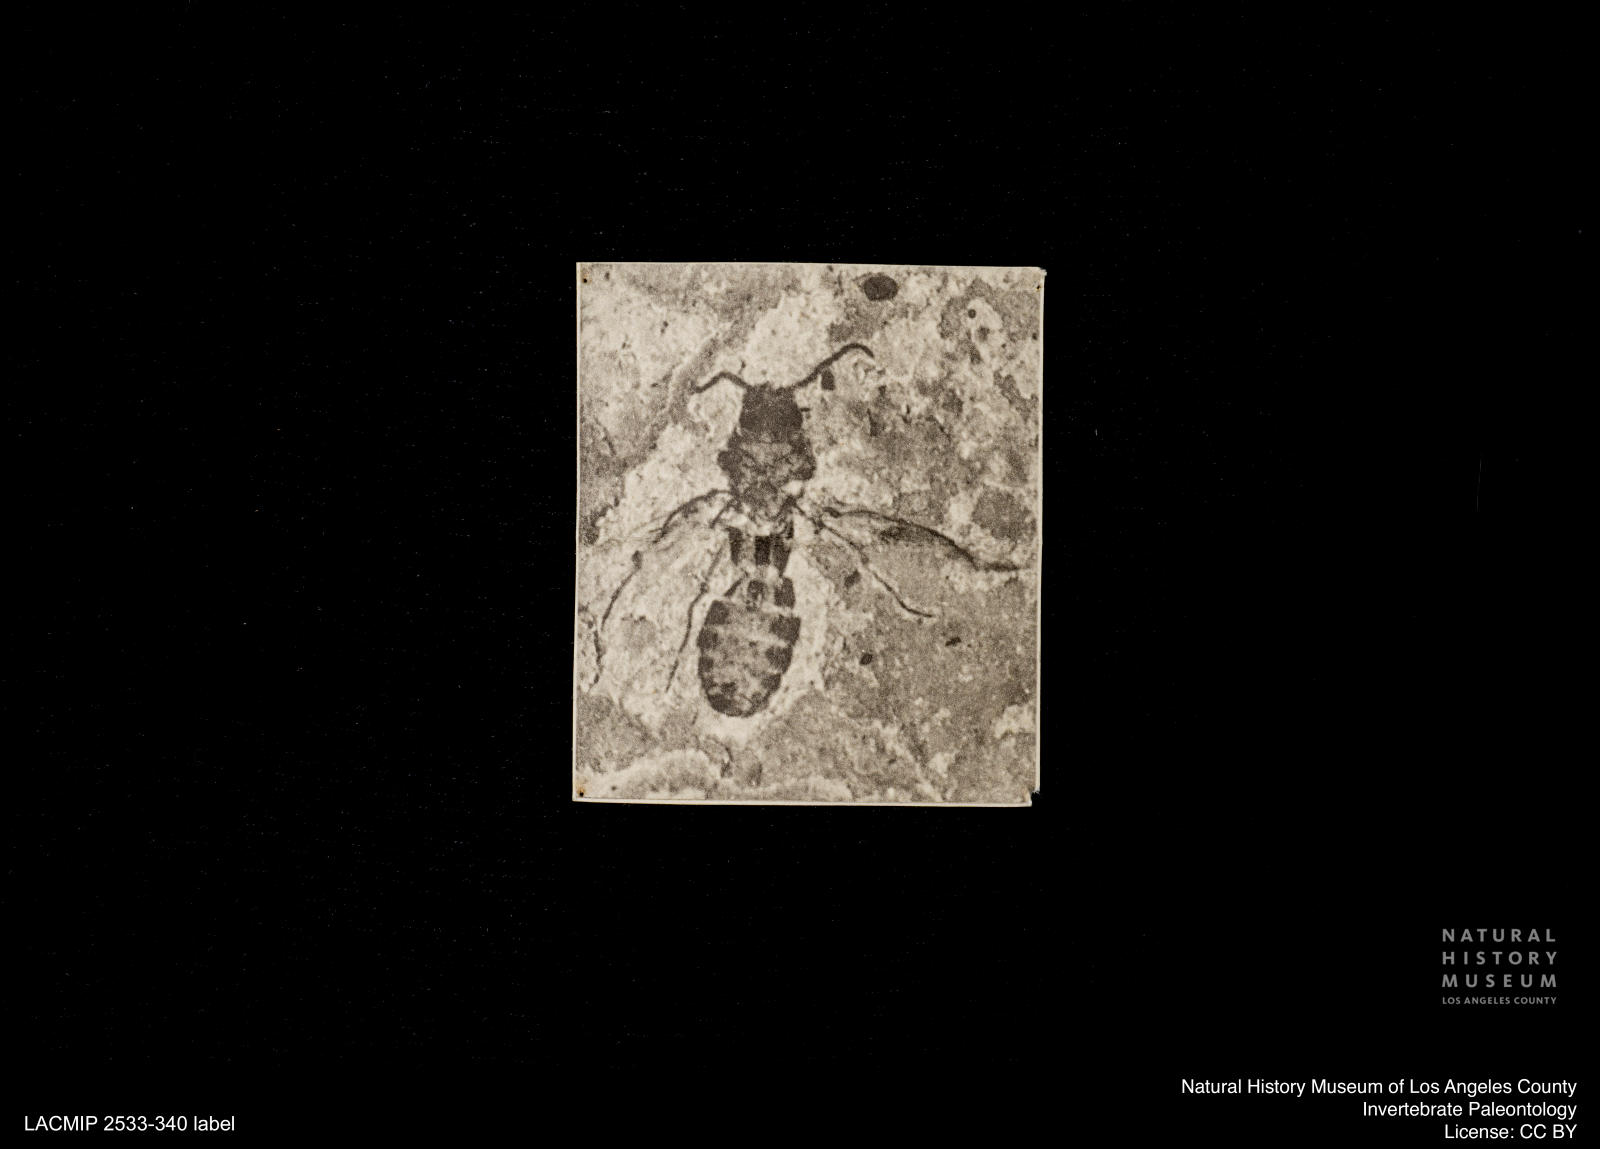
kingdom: Animalia
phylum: Arthropoda
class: Insecta
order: Diptera
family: Ceratopogonidae
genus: Culicoides
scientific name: Culicoides ventralis
